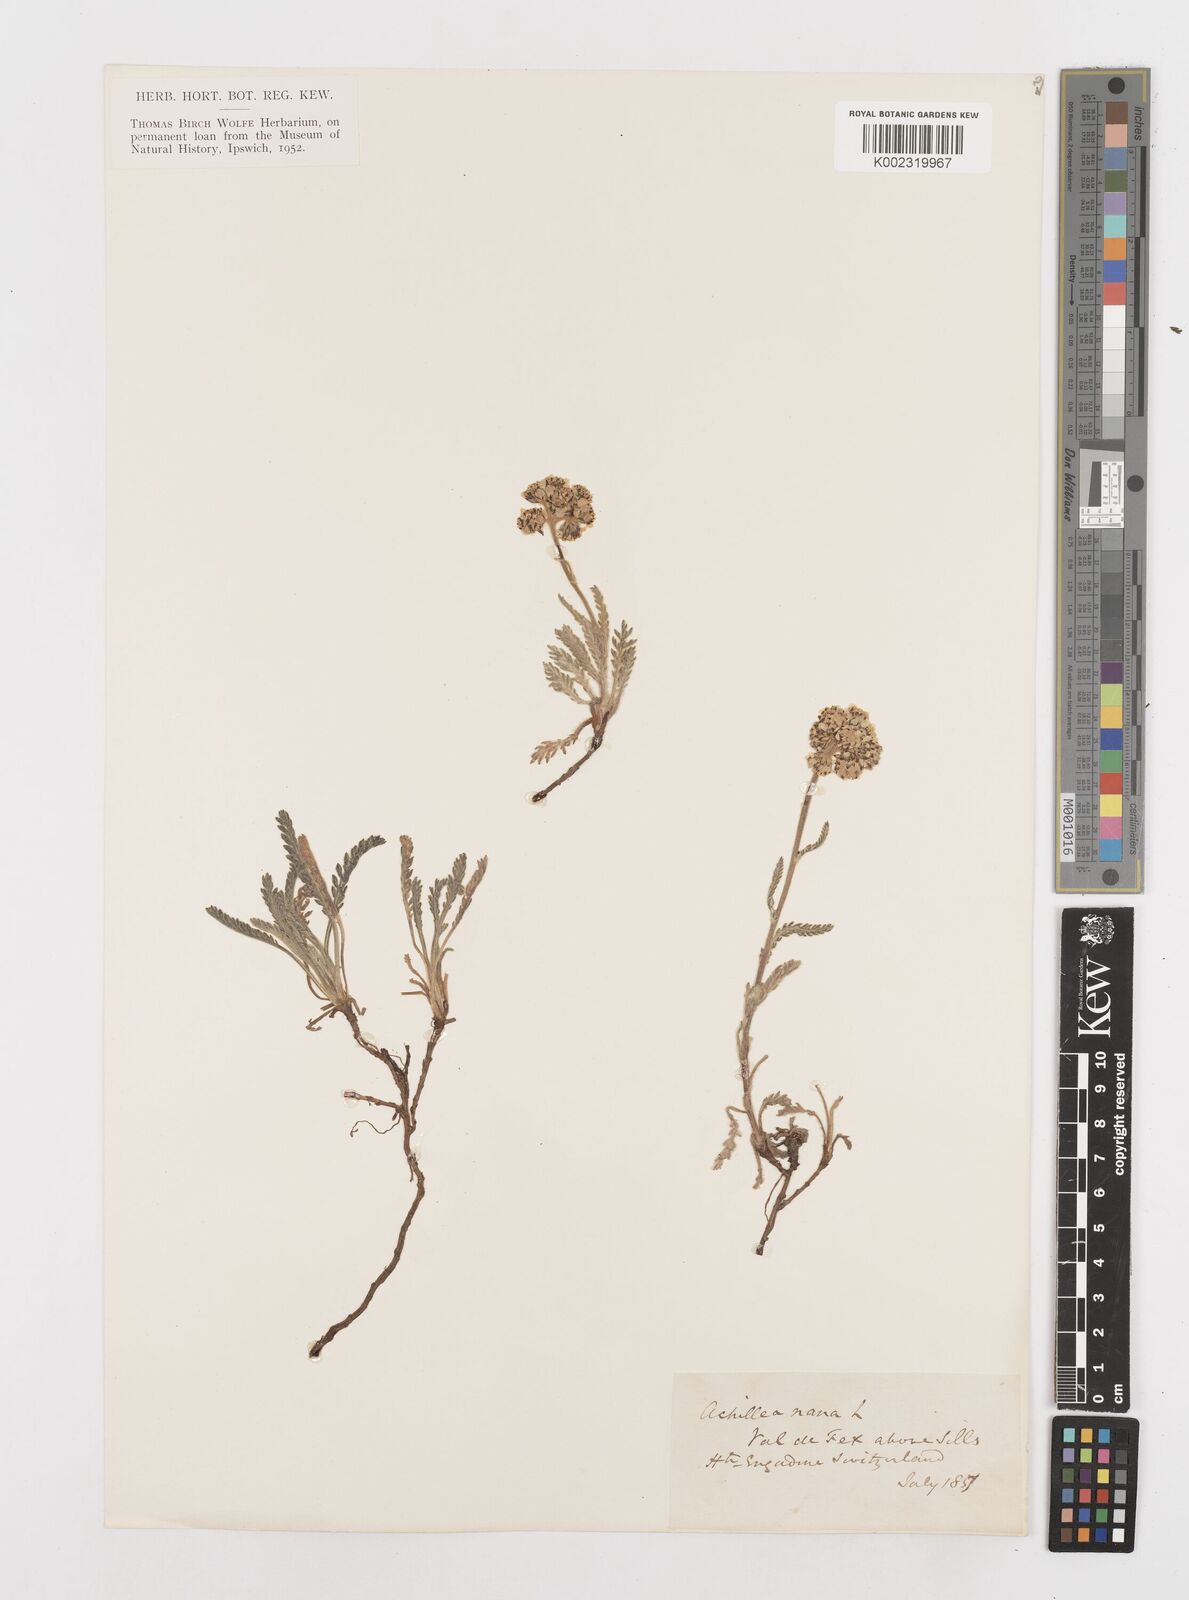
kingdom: Plantae
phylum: Tracheophyta
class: Magnoliopsida
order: Asterales
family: Asteraceae
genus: Achillea
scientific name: Achillea erba-rotta
